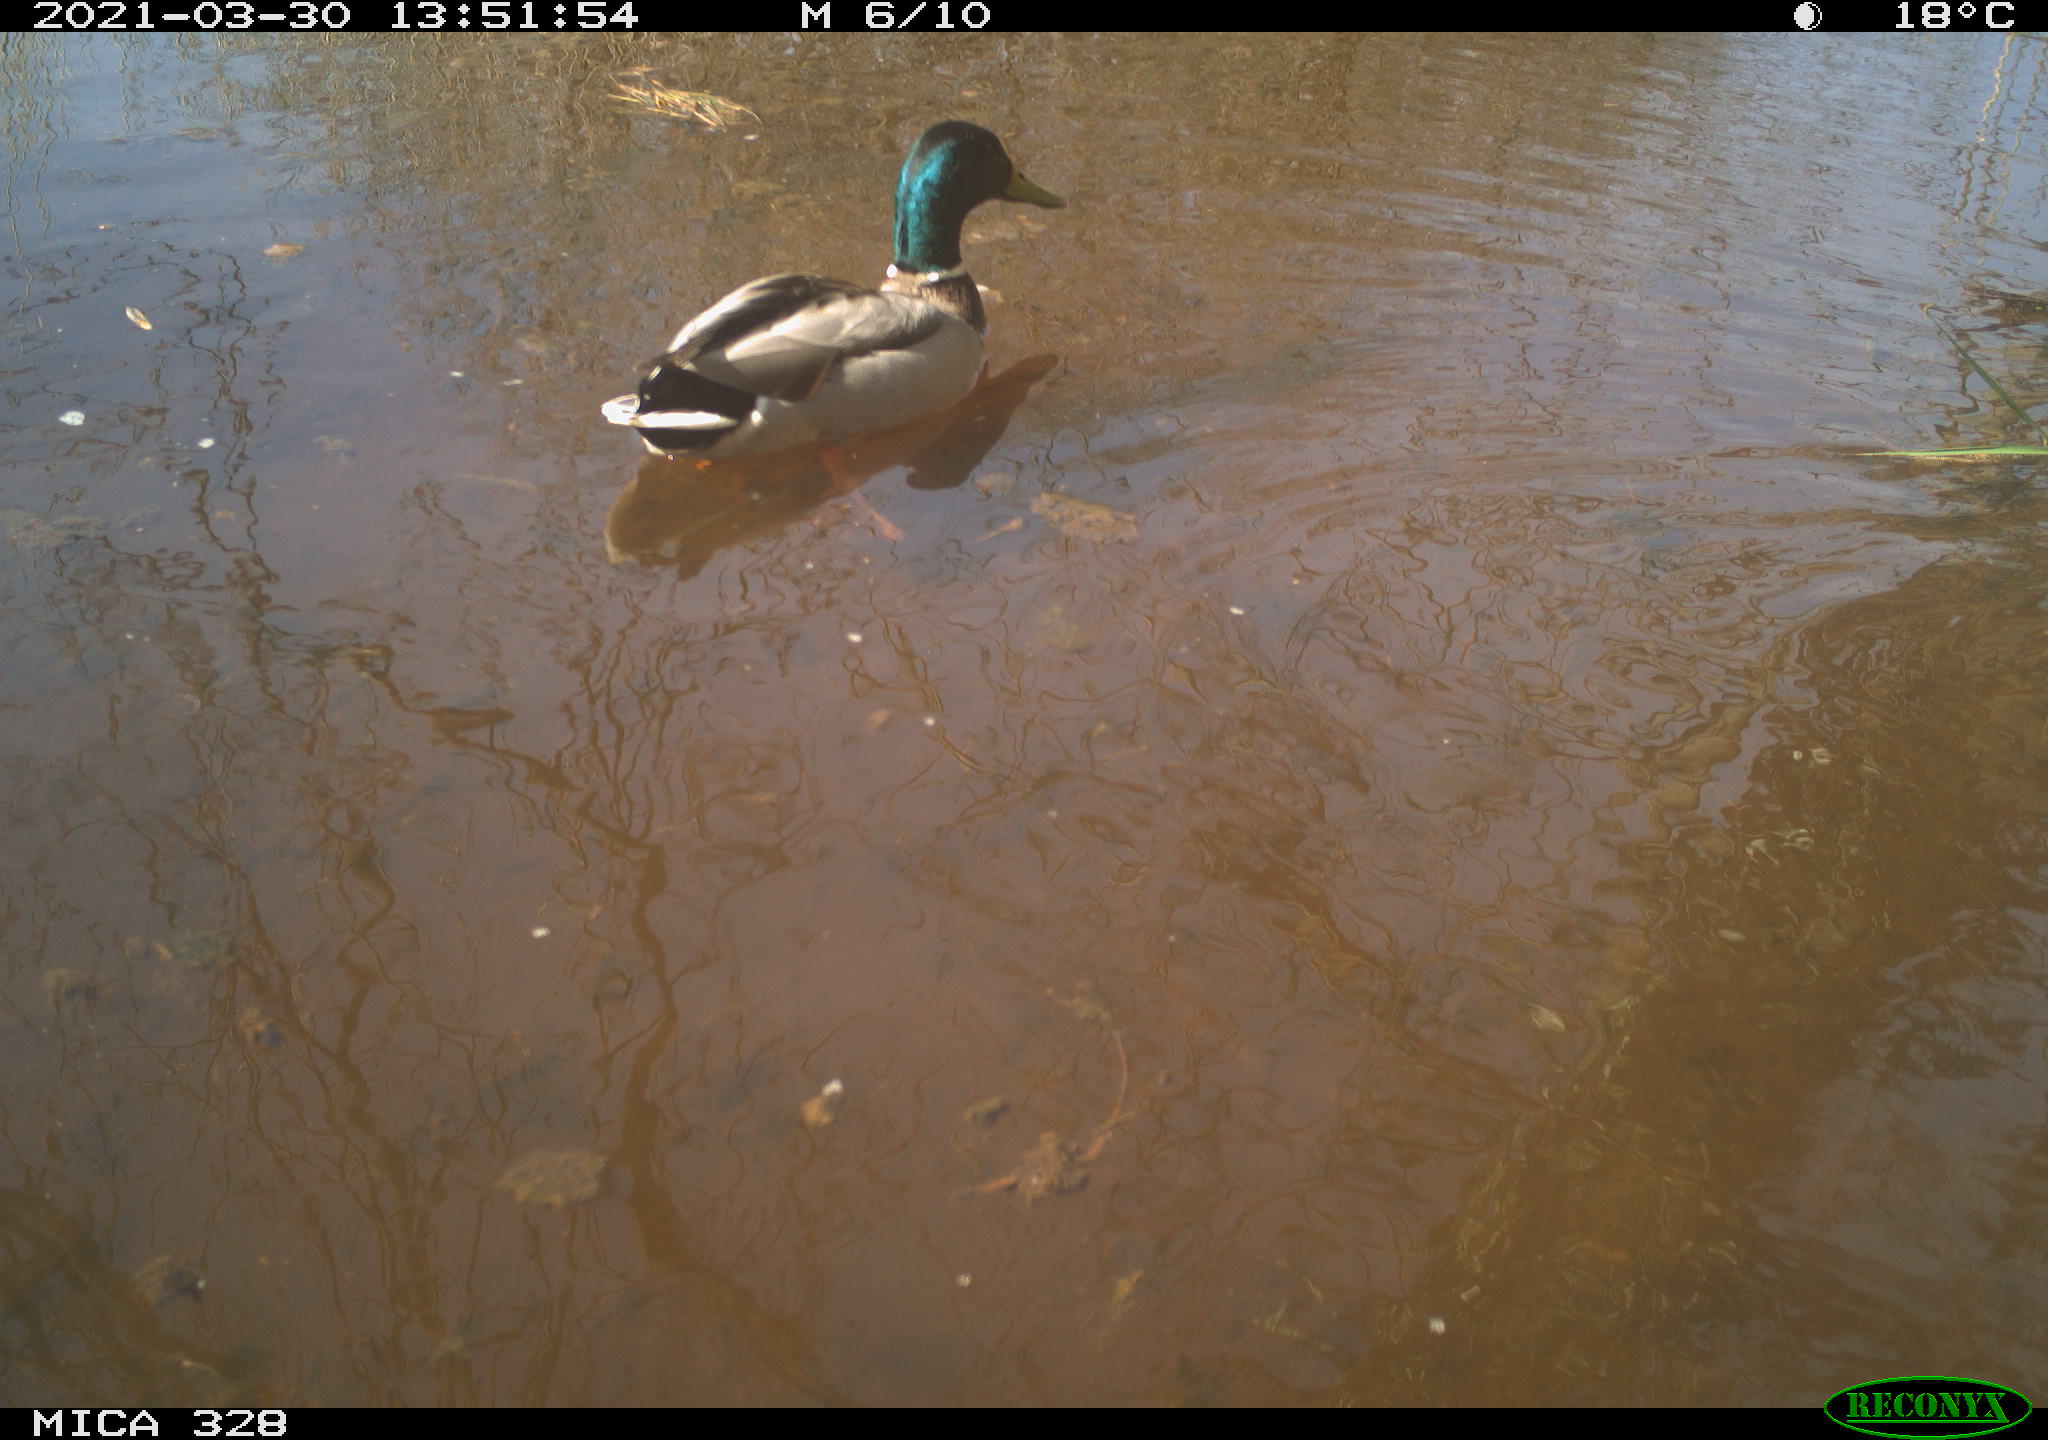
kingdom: Animalia
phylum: Chordata
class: Aves
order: Anseriformes
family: Anatidae
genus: Anas
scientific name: Anas platyrhynchos
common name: Mallard
